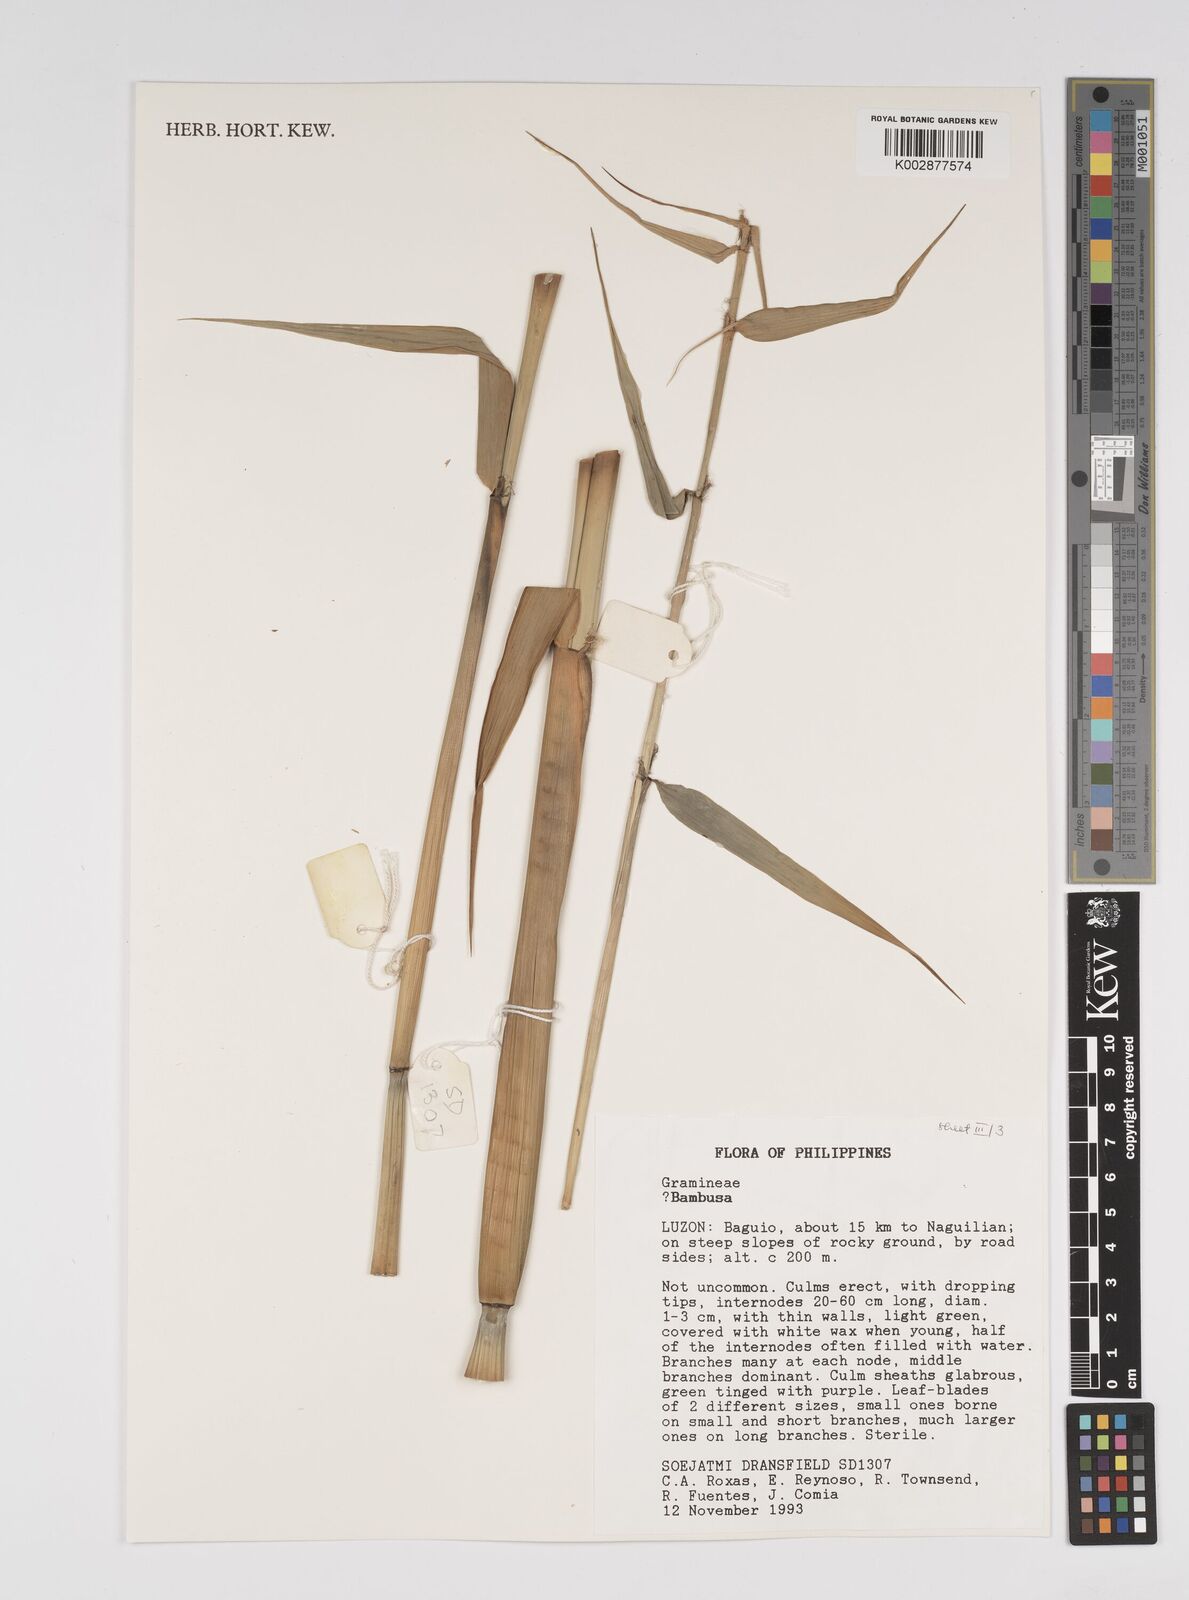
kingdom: Plantae
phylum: Tracheophyta
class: Liliopsida
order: Poales
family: Poaceae
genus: Bambusa
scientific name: Bambusa
